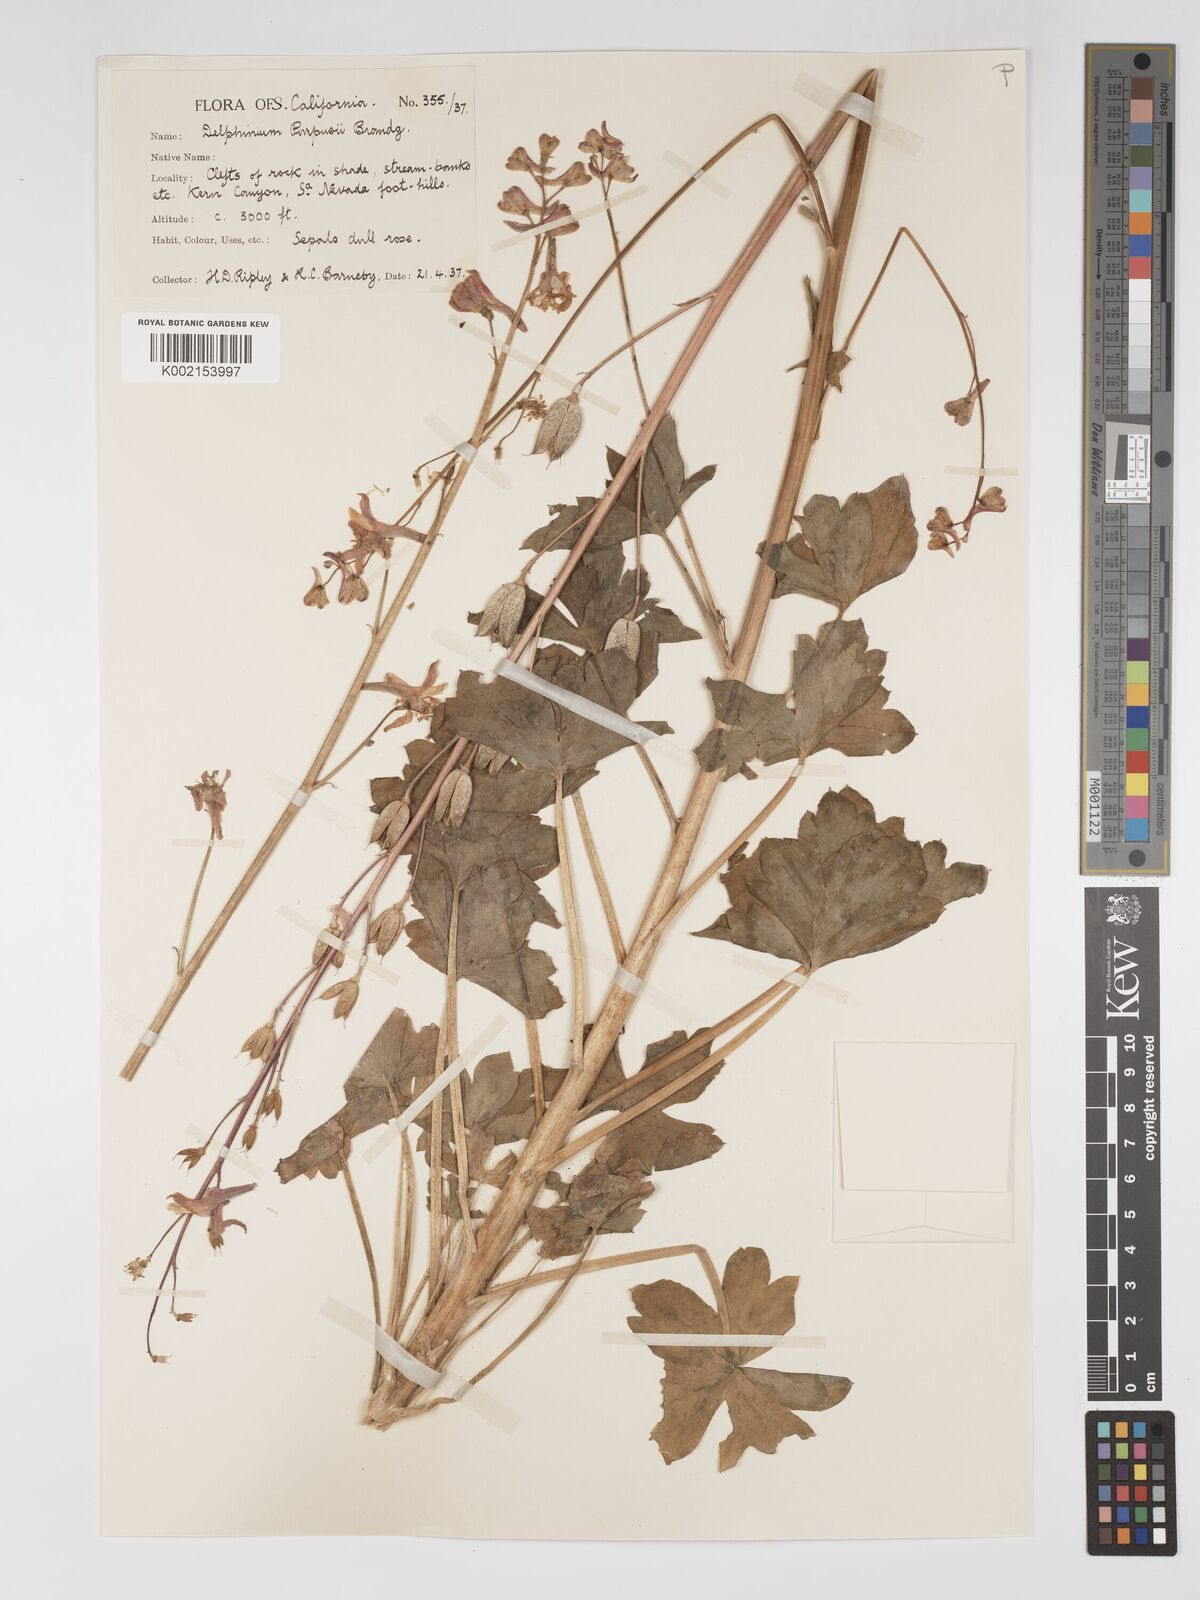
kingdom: Plantae
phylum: Tracheophyta
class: Magnoliopsida
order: Ranunculales
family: Ranunculaceae
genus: Delphinium
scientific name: Delphinium purpusii
